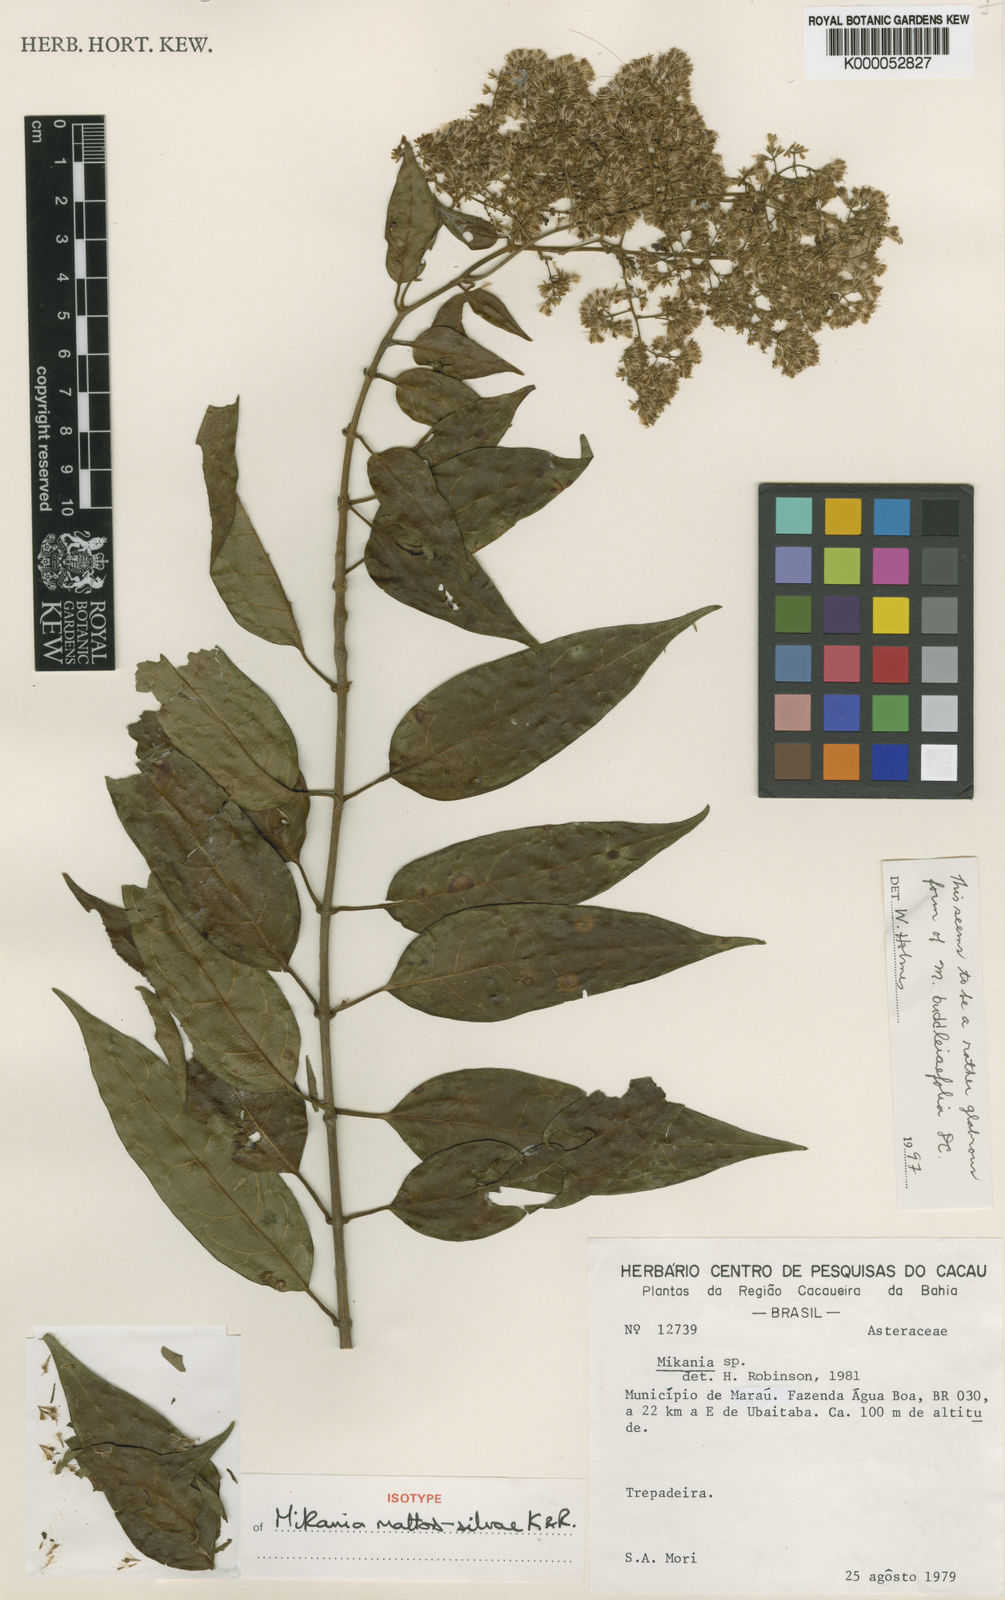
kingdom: Plantae
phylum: Tracheophyta
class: Magnoliopsida
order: Asterales
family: Asteraceae
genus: Mikania
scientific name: Mikania mattos-silvae
